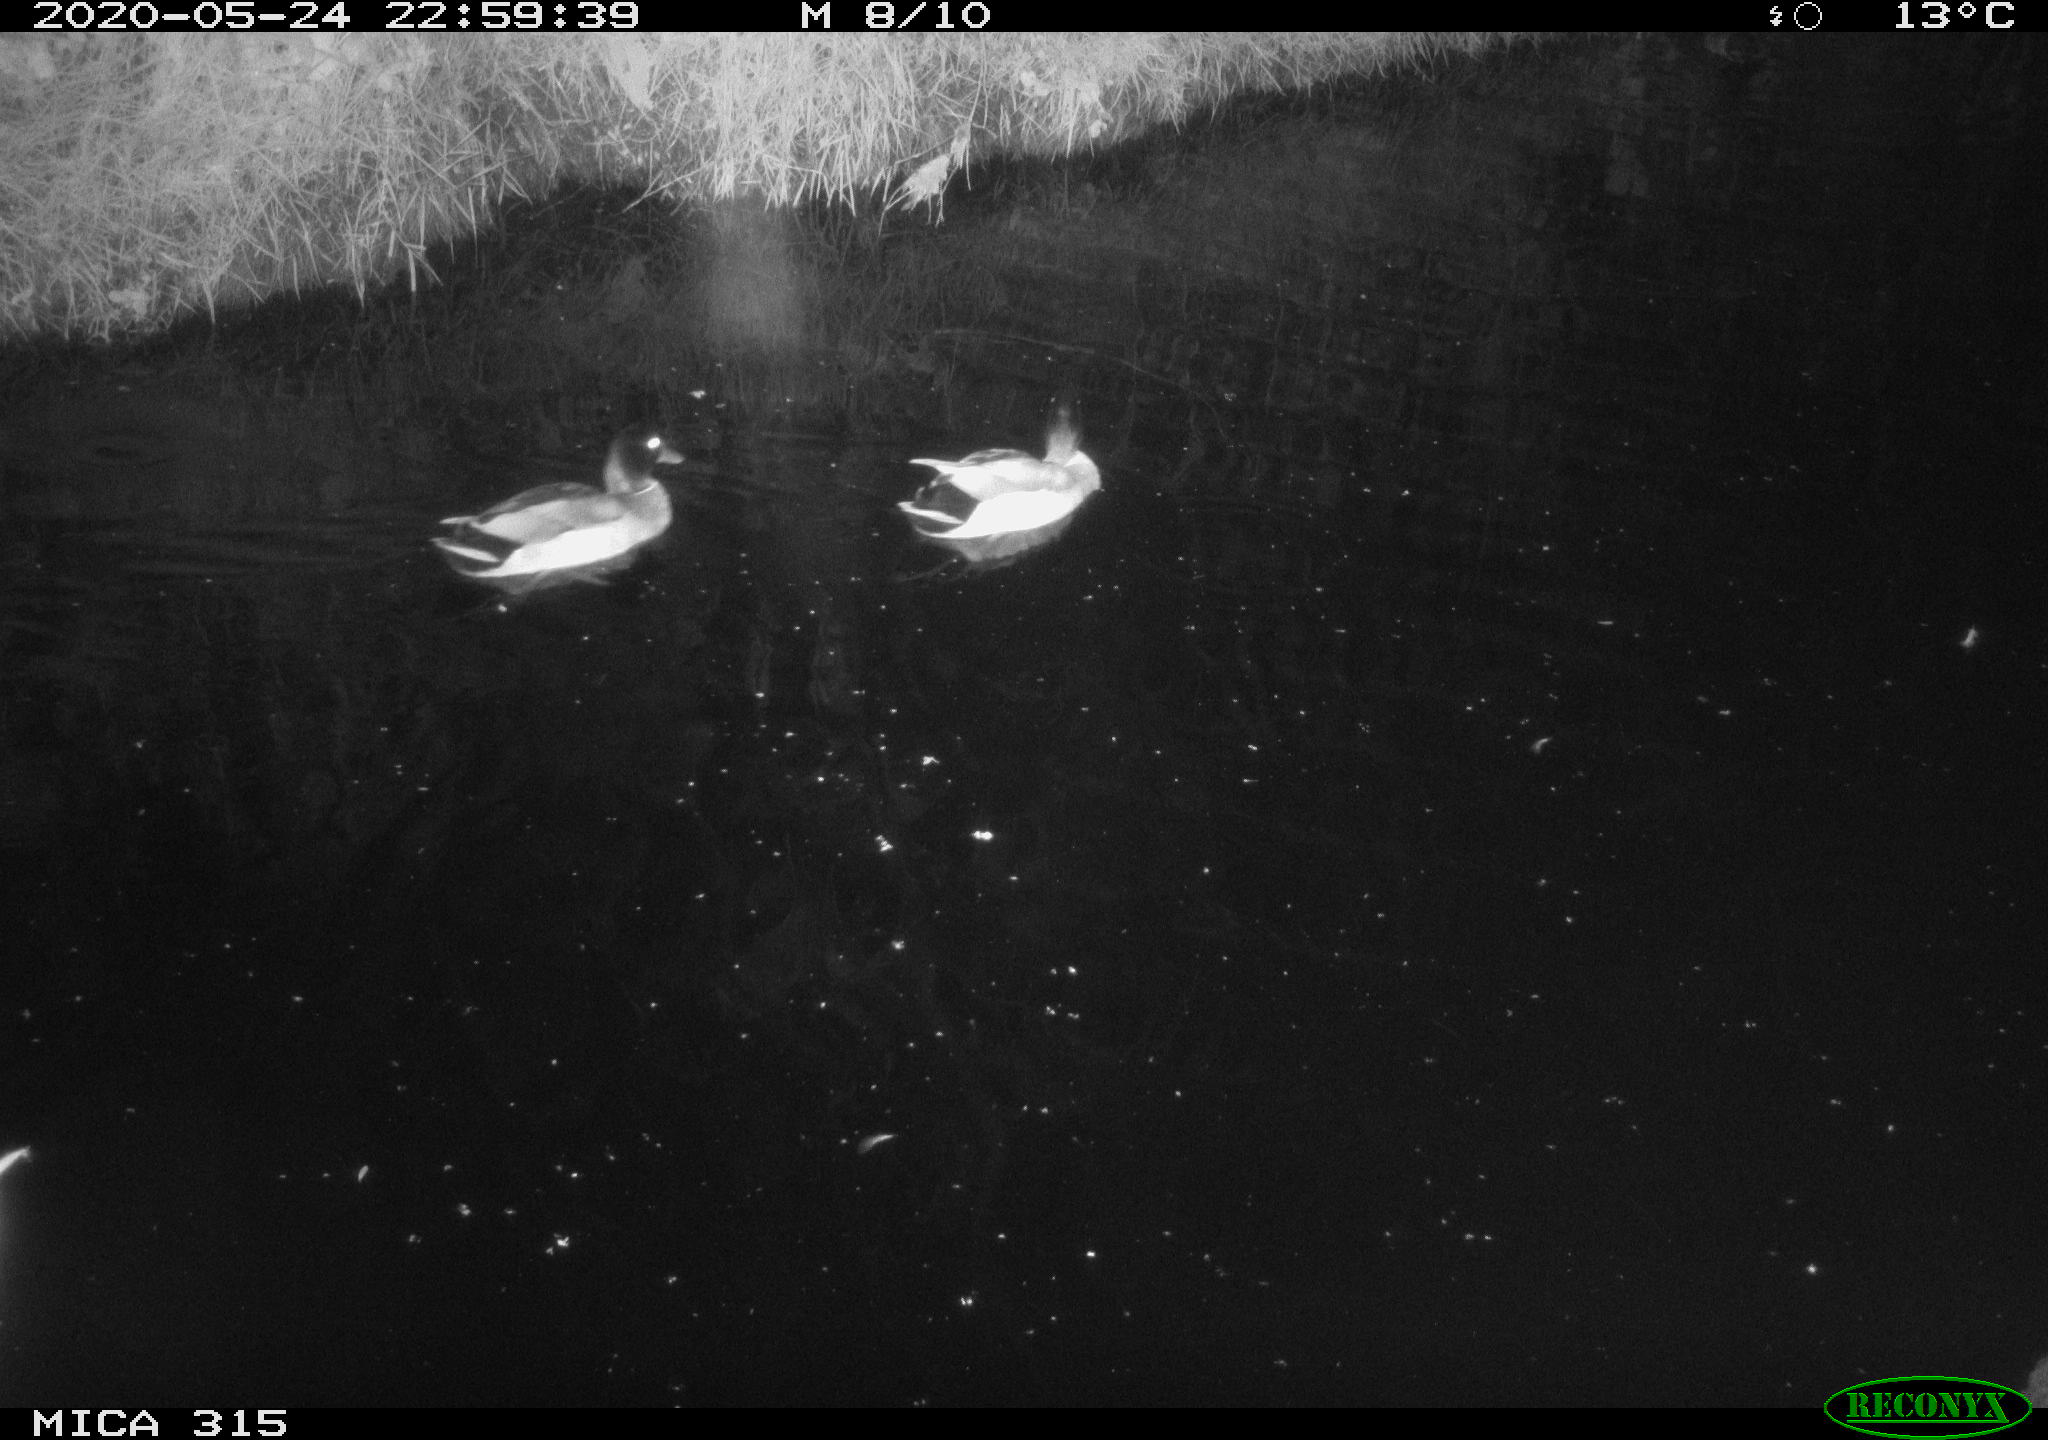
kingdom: Animalia
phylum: Chordata
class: Aves
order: Anseriformes
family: Anatidae
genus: Anas
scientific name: Anas platyrhynchos
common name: Mallard
